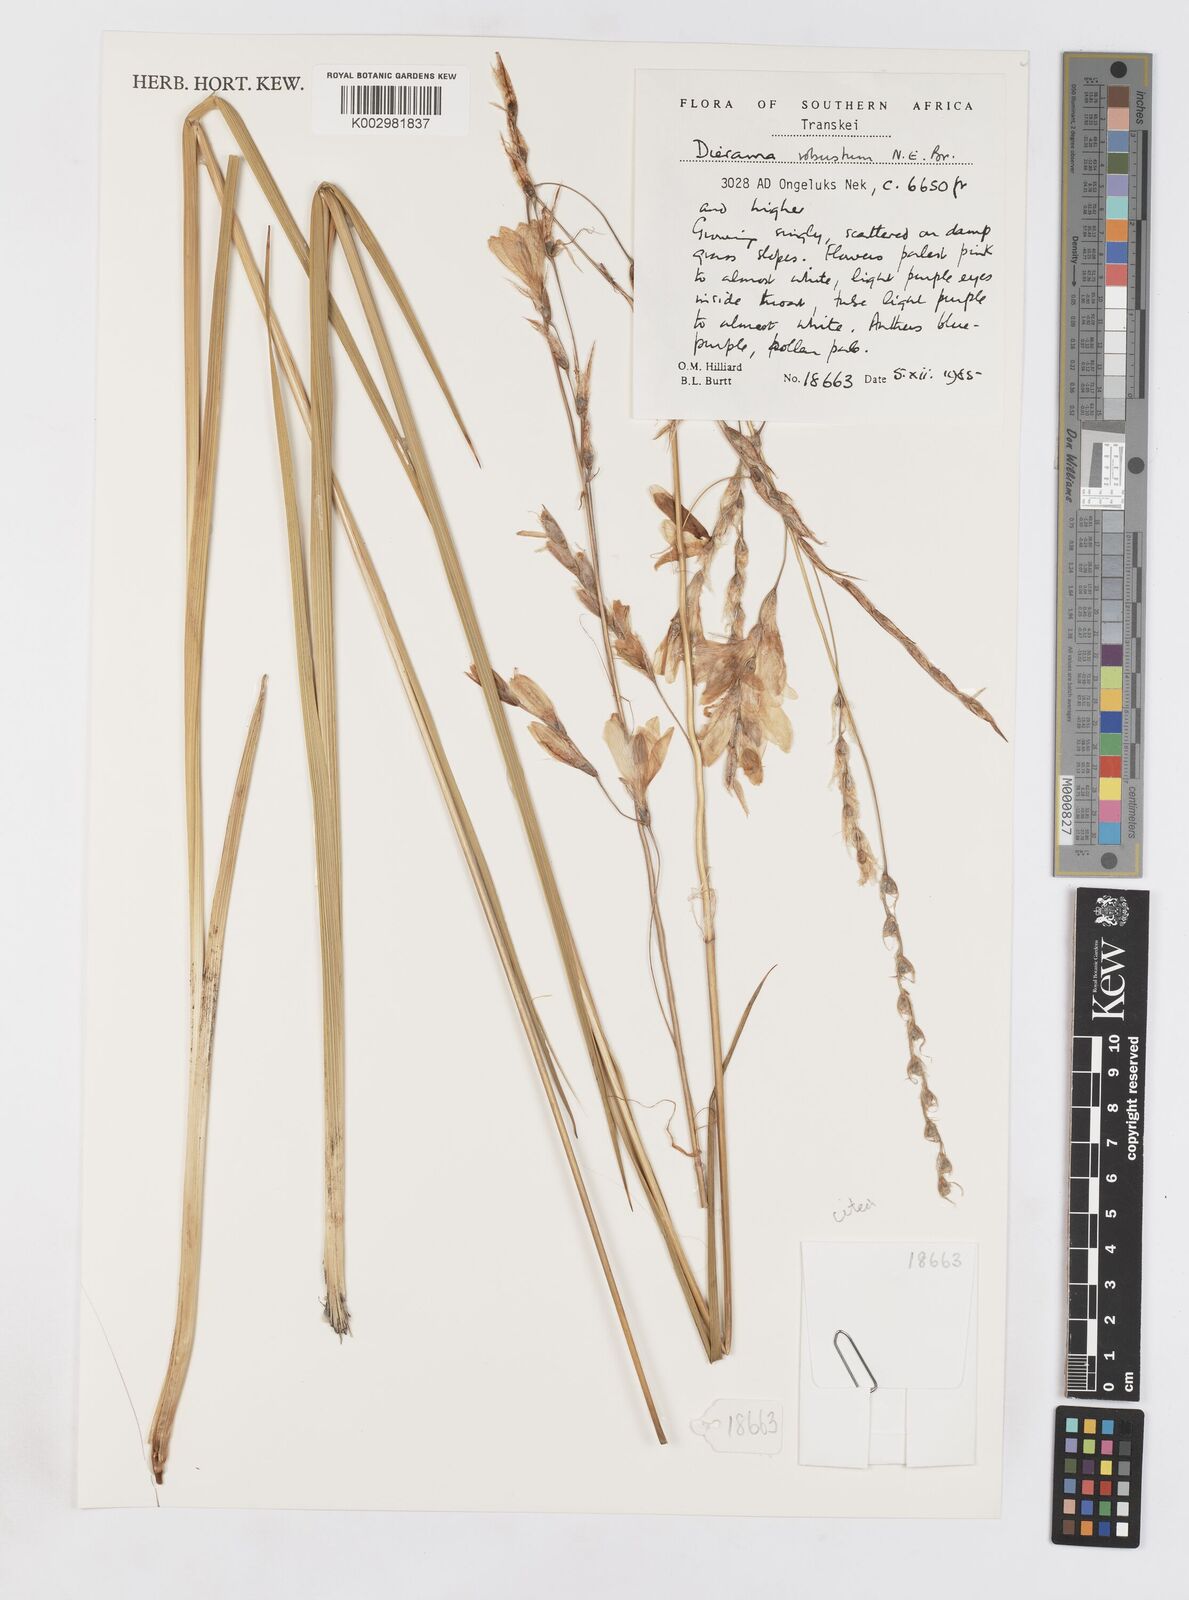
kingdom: Plantae
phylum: Tracheophyta
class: Liliopsida
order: Asparagales
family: Iridaceae
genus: Dierama
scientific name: Dierama robustum
